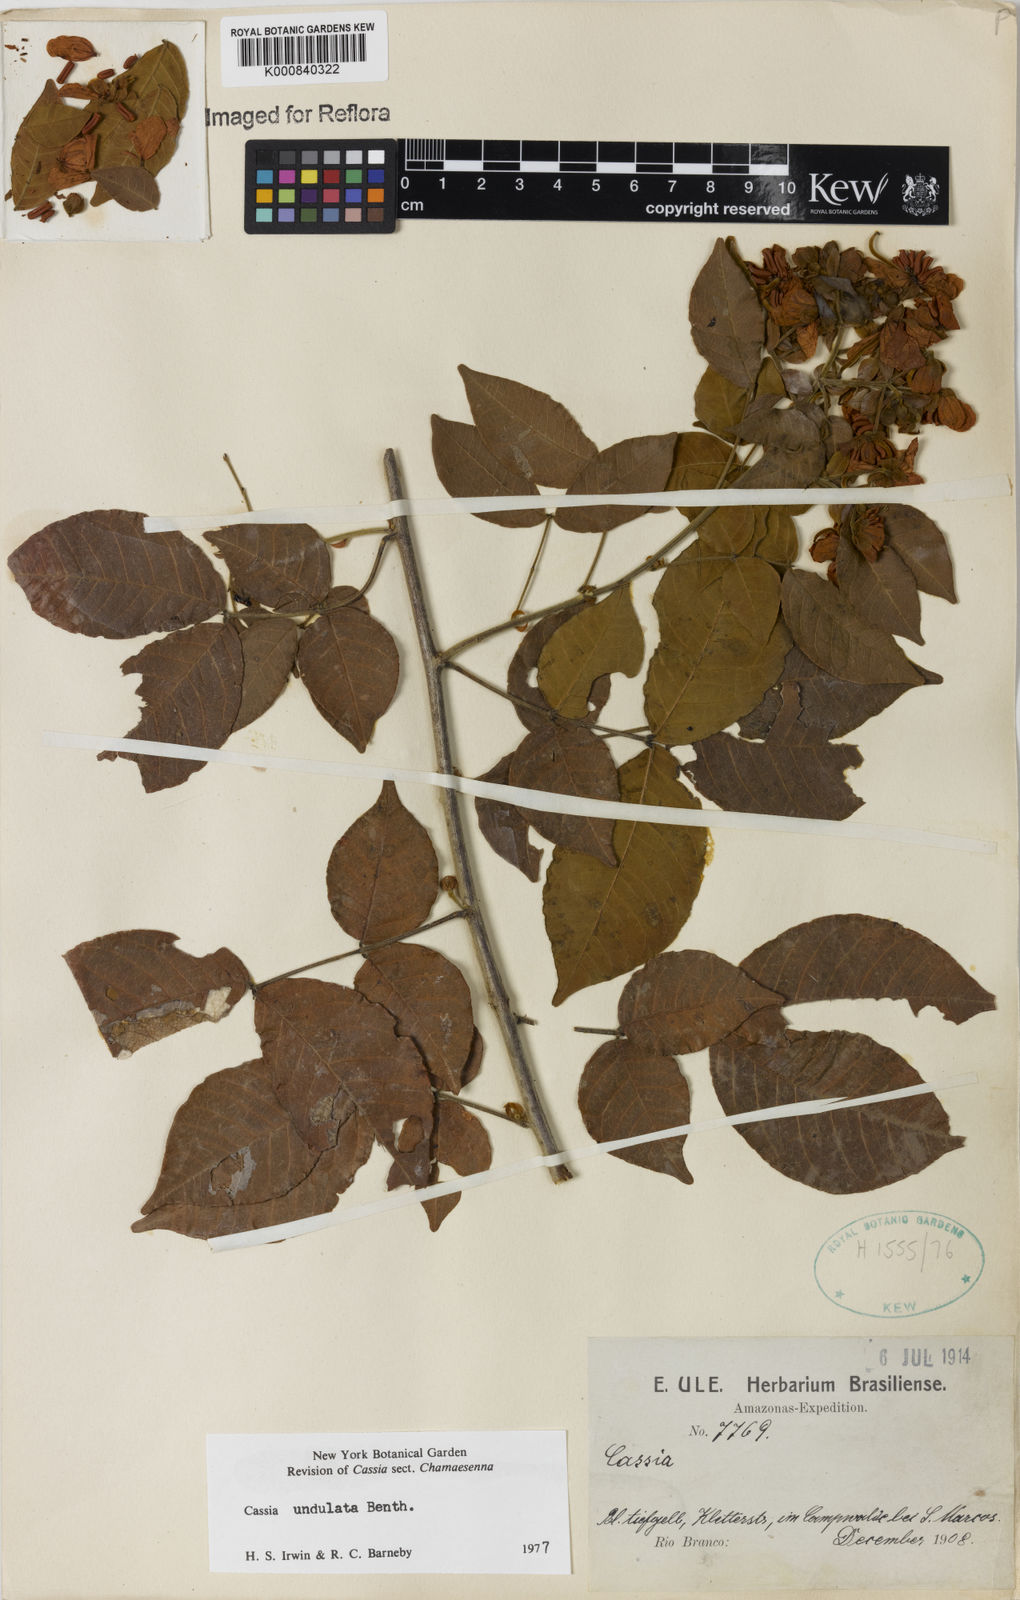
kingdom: Plantae
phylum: Tracheophyta
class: Magnoliopsida
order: Fabales
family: Fabaceae
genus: Senna
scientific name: Senna undulata
